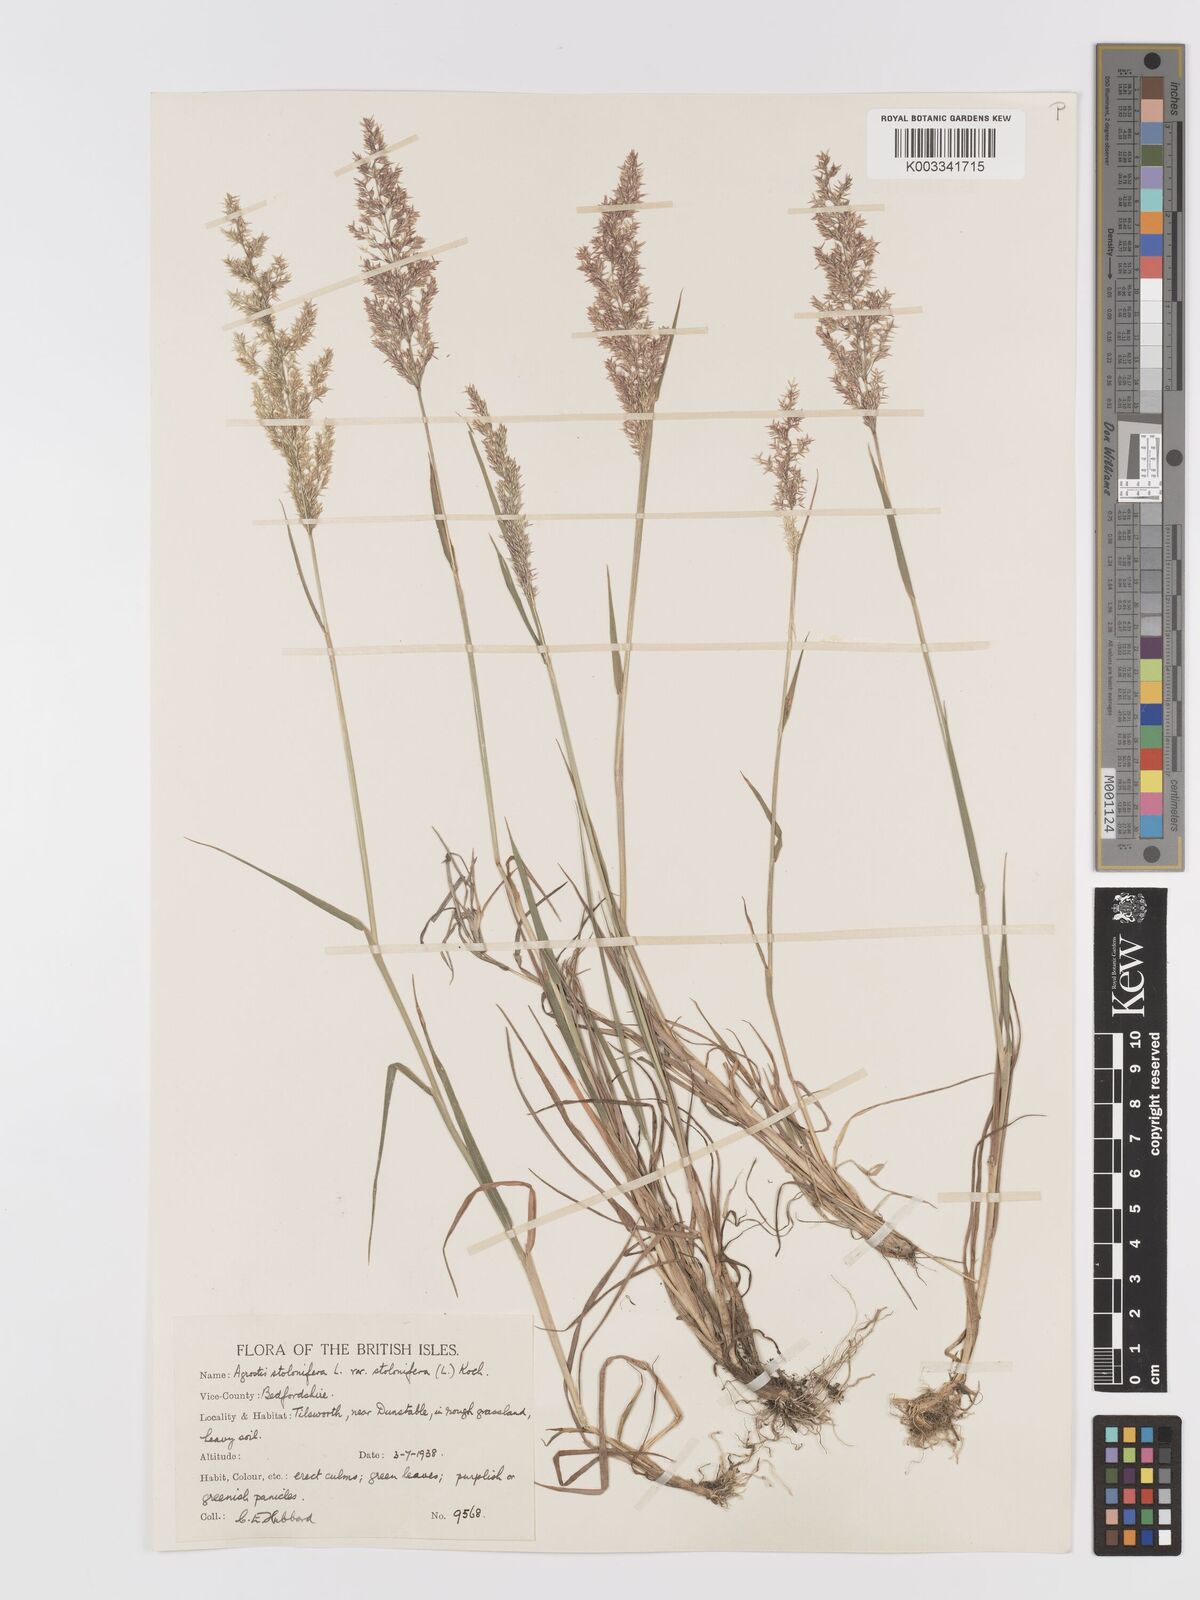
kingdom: Plantae
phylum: Tracheophyta
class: Liliopsida
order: Poales
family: Poaceae
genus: Agrostis
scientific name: Agrostis stolonifera
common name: Creeping bentgrass
